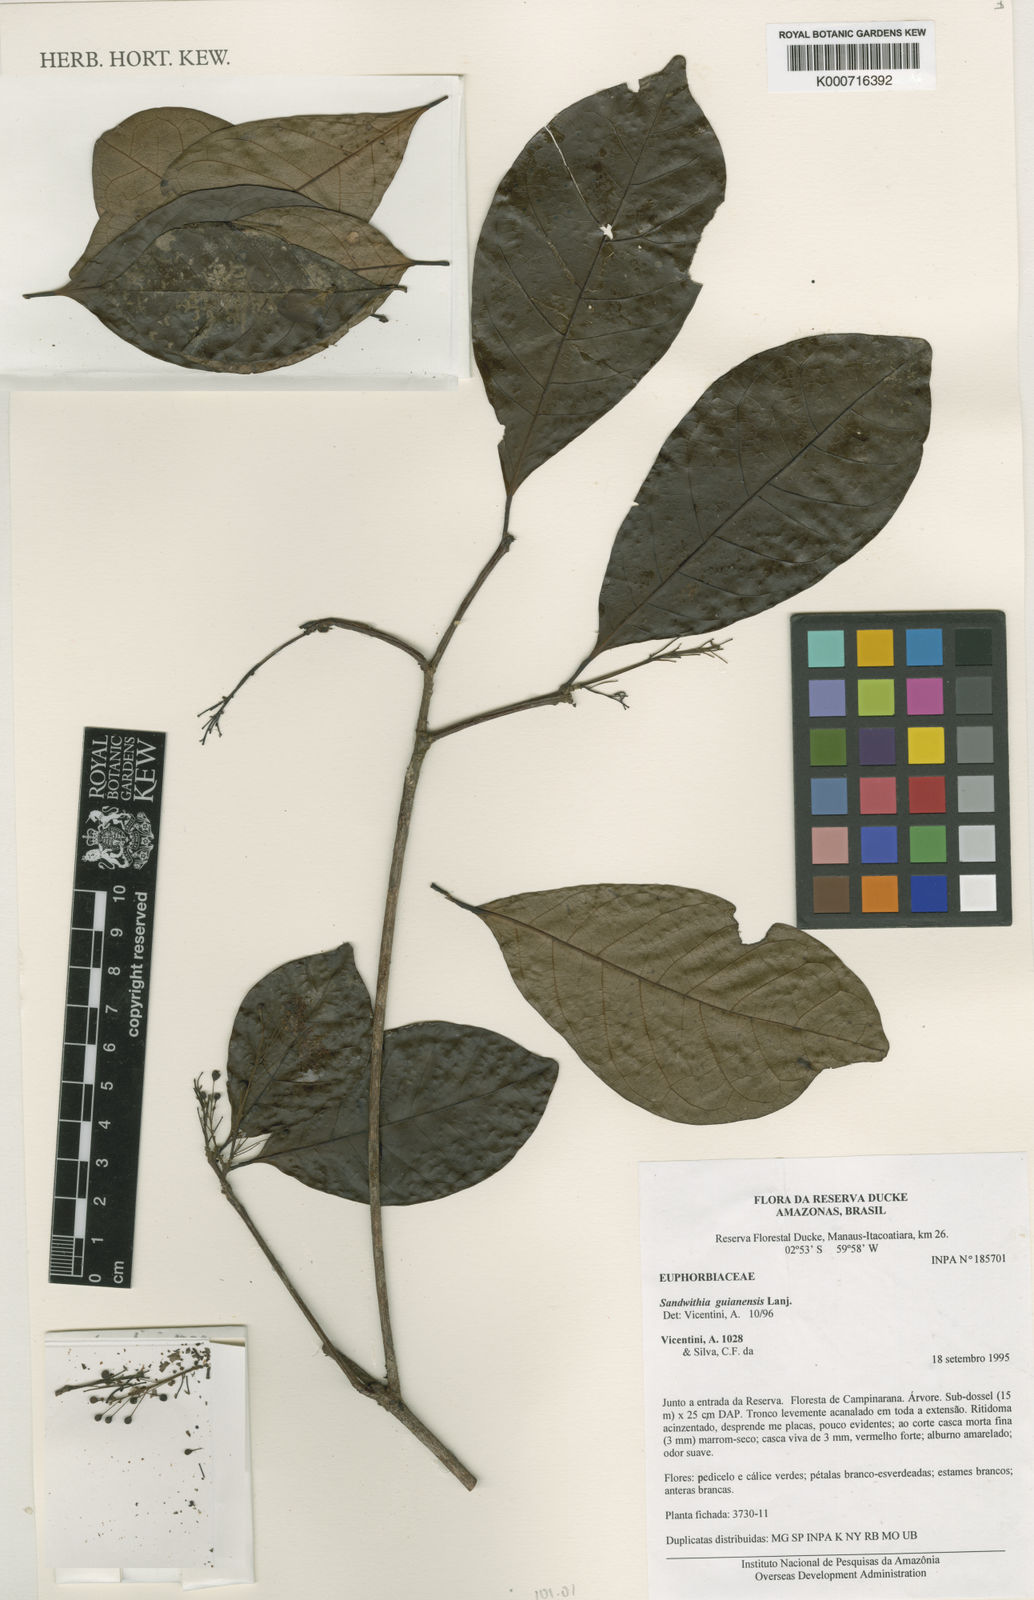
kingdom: Plantae
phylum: Tracheophyta
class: Magnoliopsida
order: Malpighiales
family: Euphorbiaceae
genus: Sandwithia
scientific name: Sandwithia guyanensis
